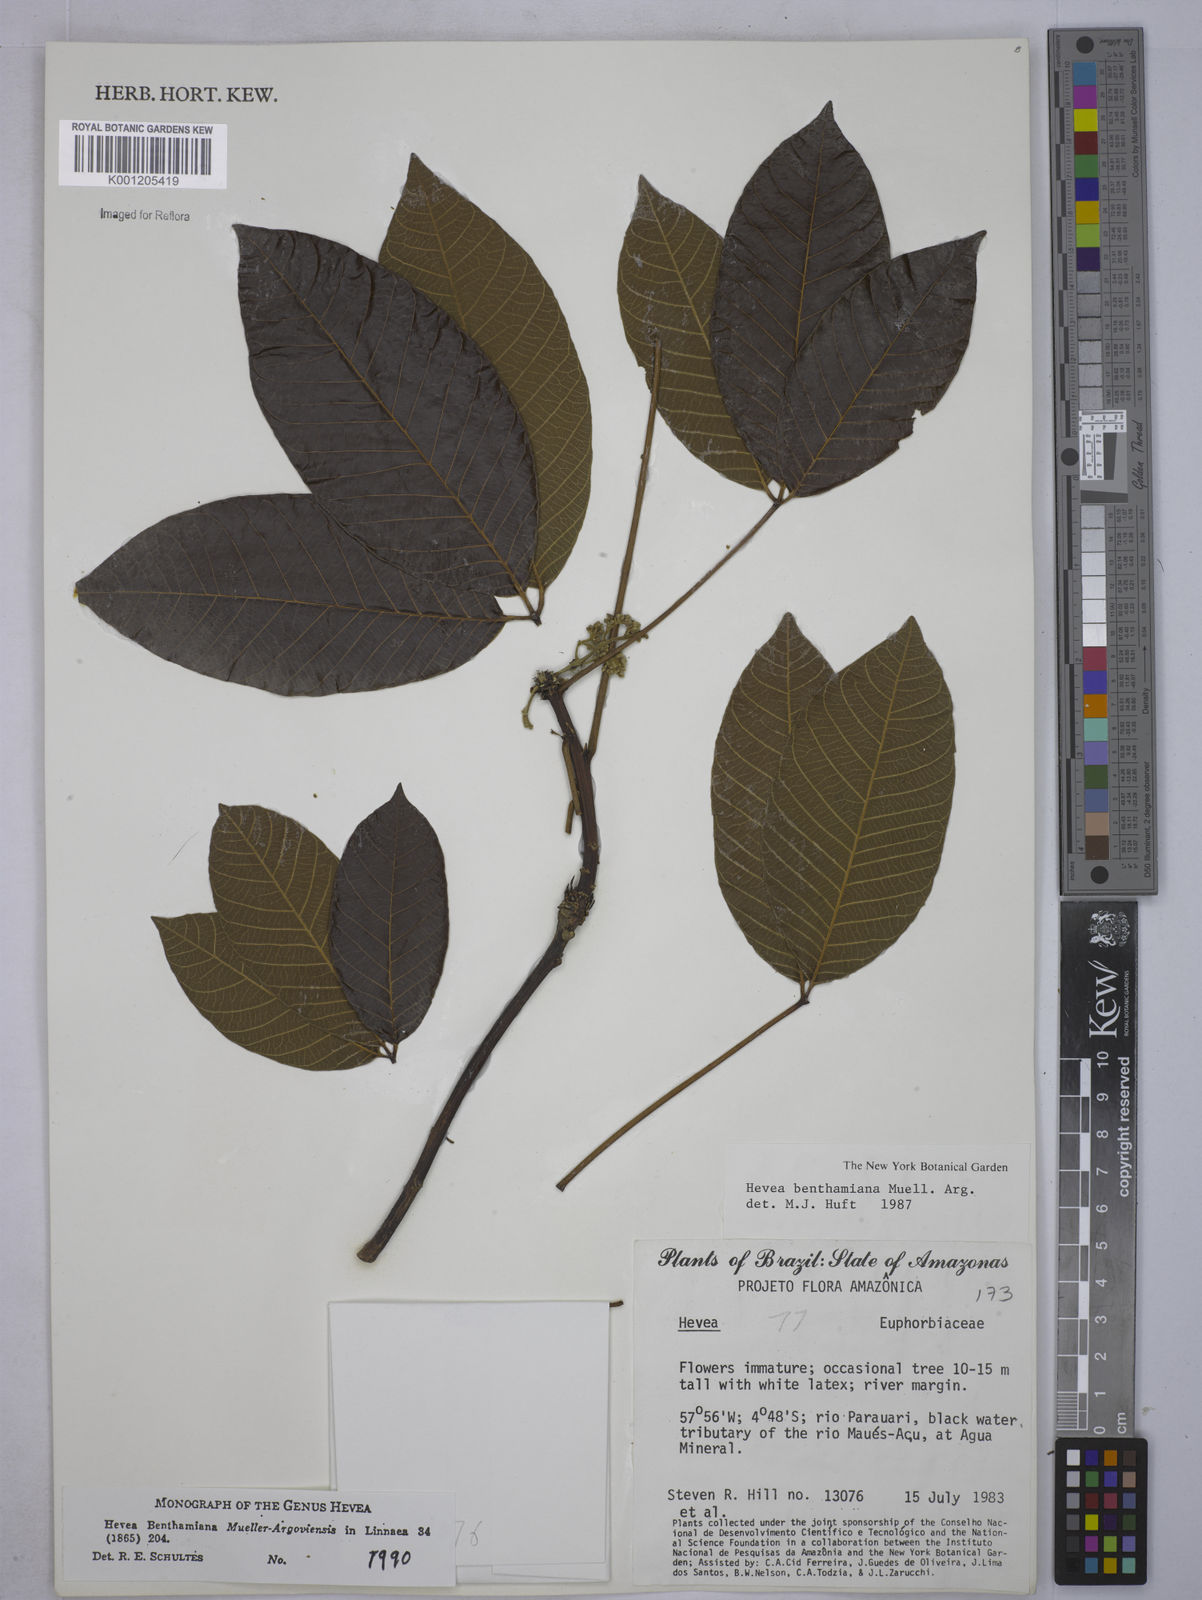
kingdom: Plantae
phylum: Tracheophyta
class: Magnoliopsida
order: Malpighiales
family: Euphorbiaceae
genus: Hevea
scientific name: Hevea
